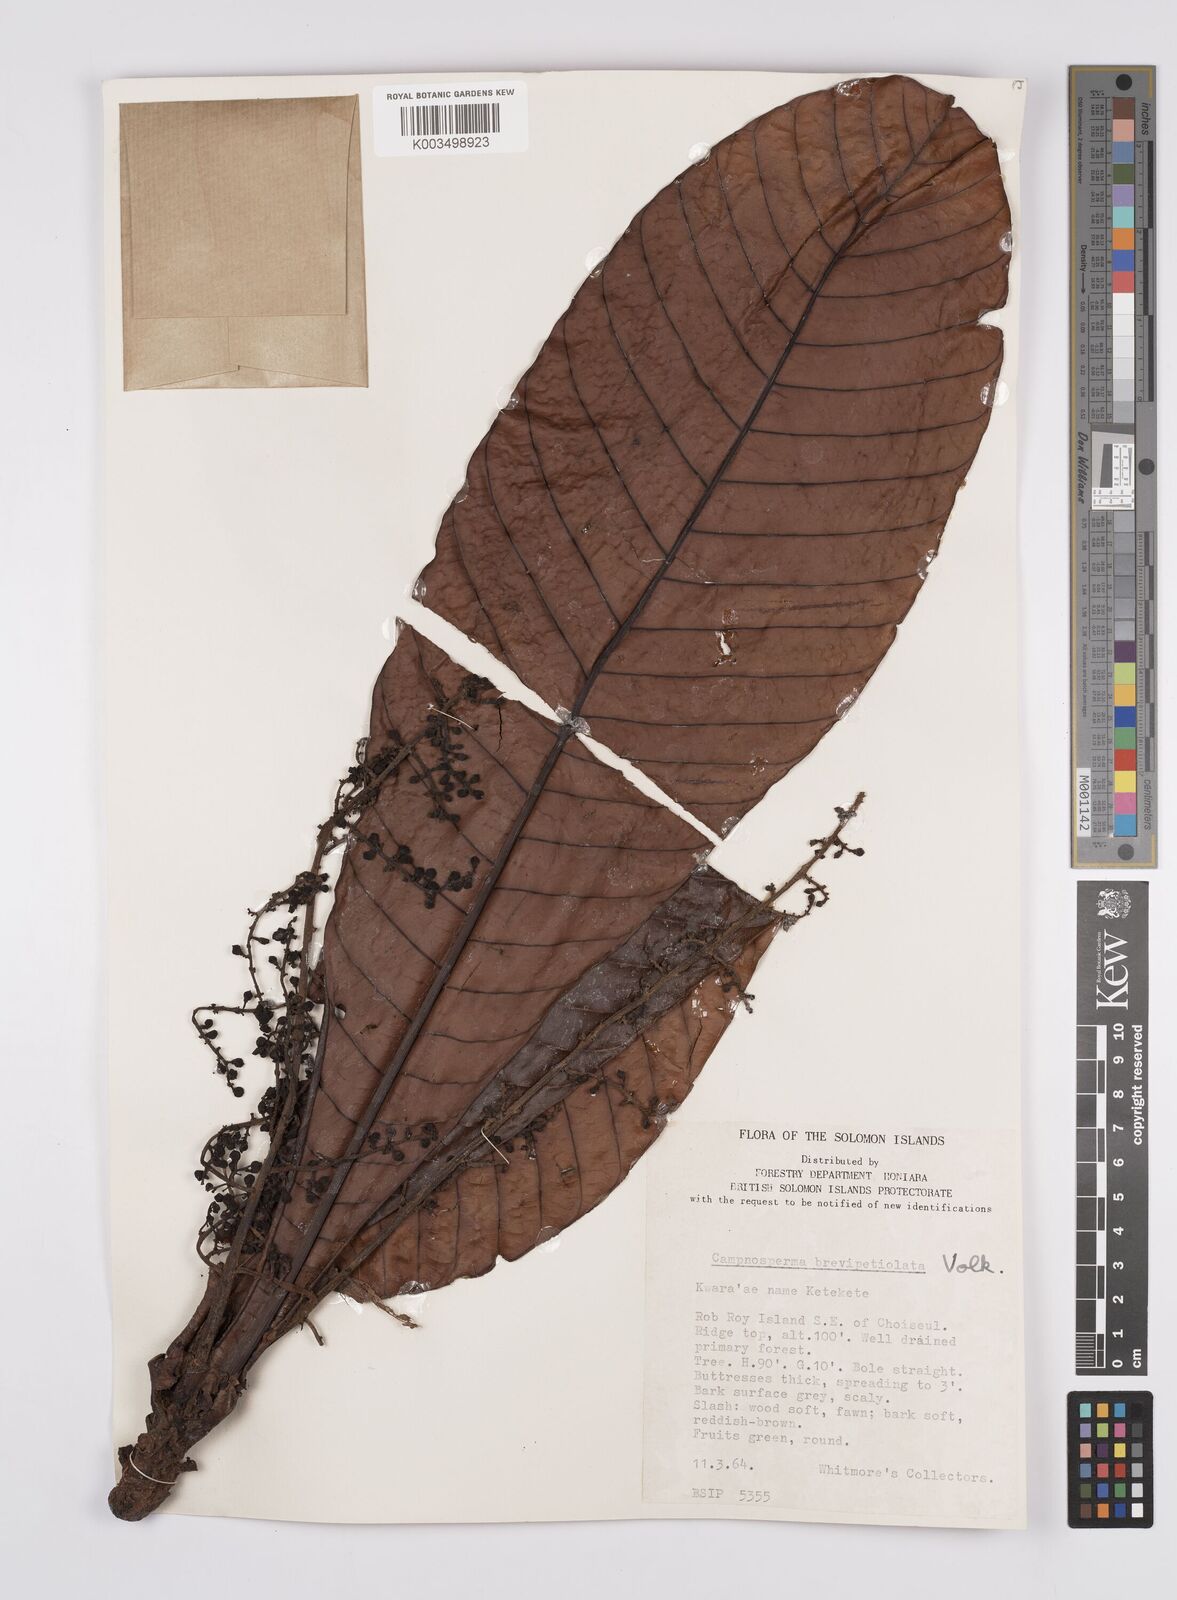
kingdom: Plantae
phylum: Tracheophyta
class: Magnoliopsida
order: Sapindales
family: Anacardiaceae
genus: Campnosperma
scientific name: Campnosperma brevipetiolatum
